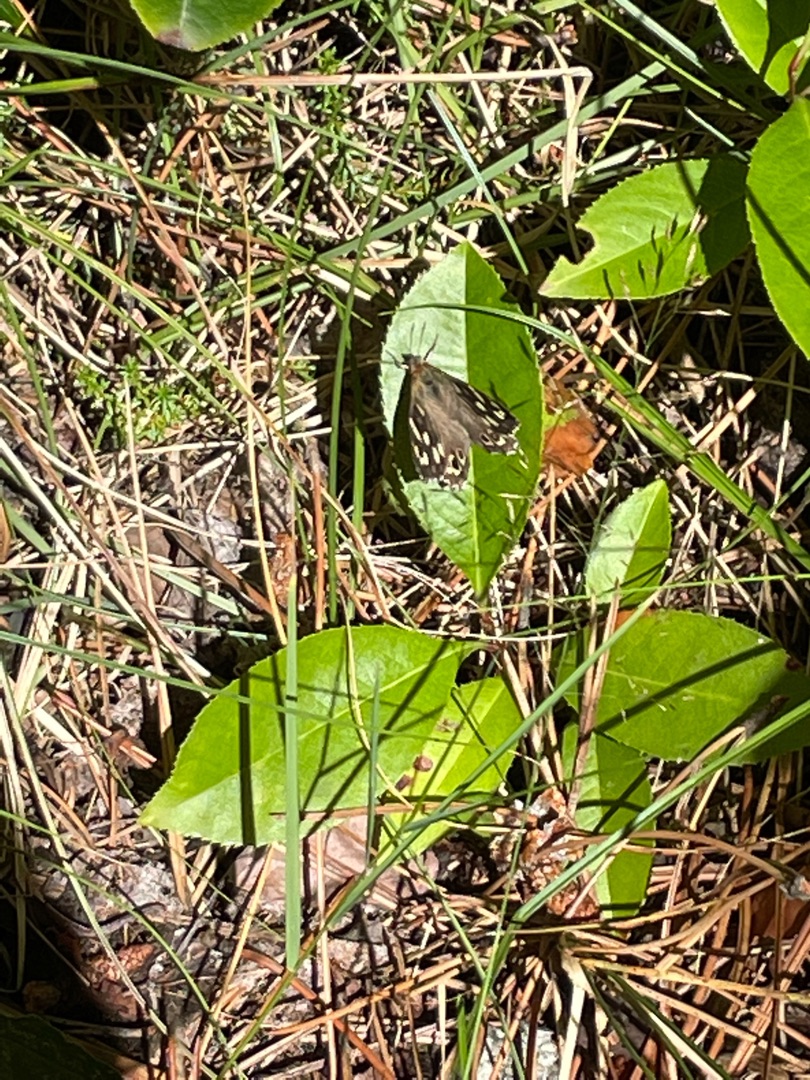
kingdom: Animalia
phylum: Arthropoda
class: Insecta
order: Lepidoptera
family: Nymphalidae
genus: Pararge
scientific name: Pararge aegeria
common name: Skovrandøje
